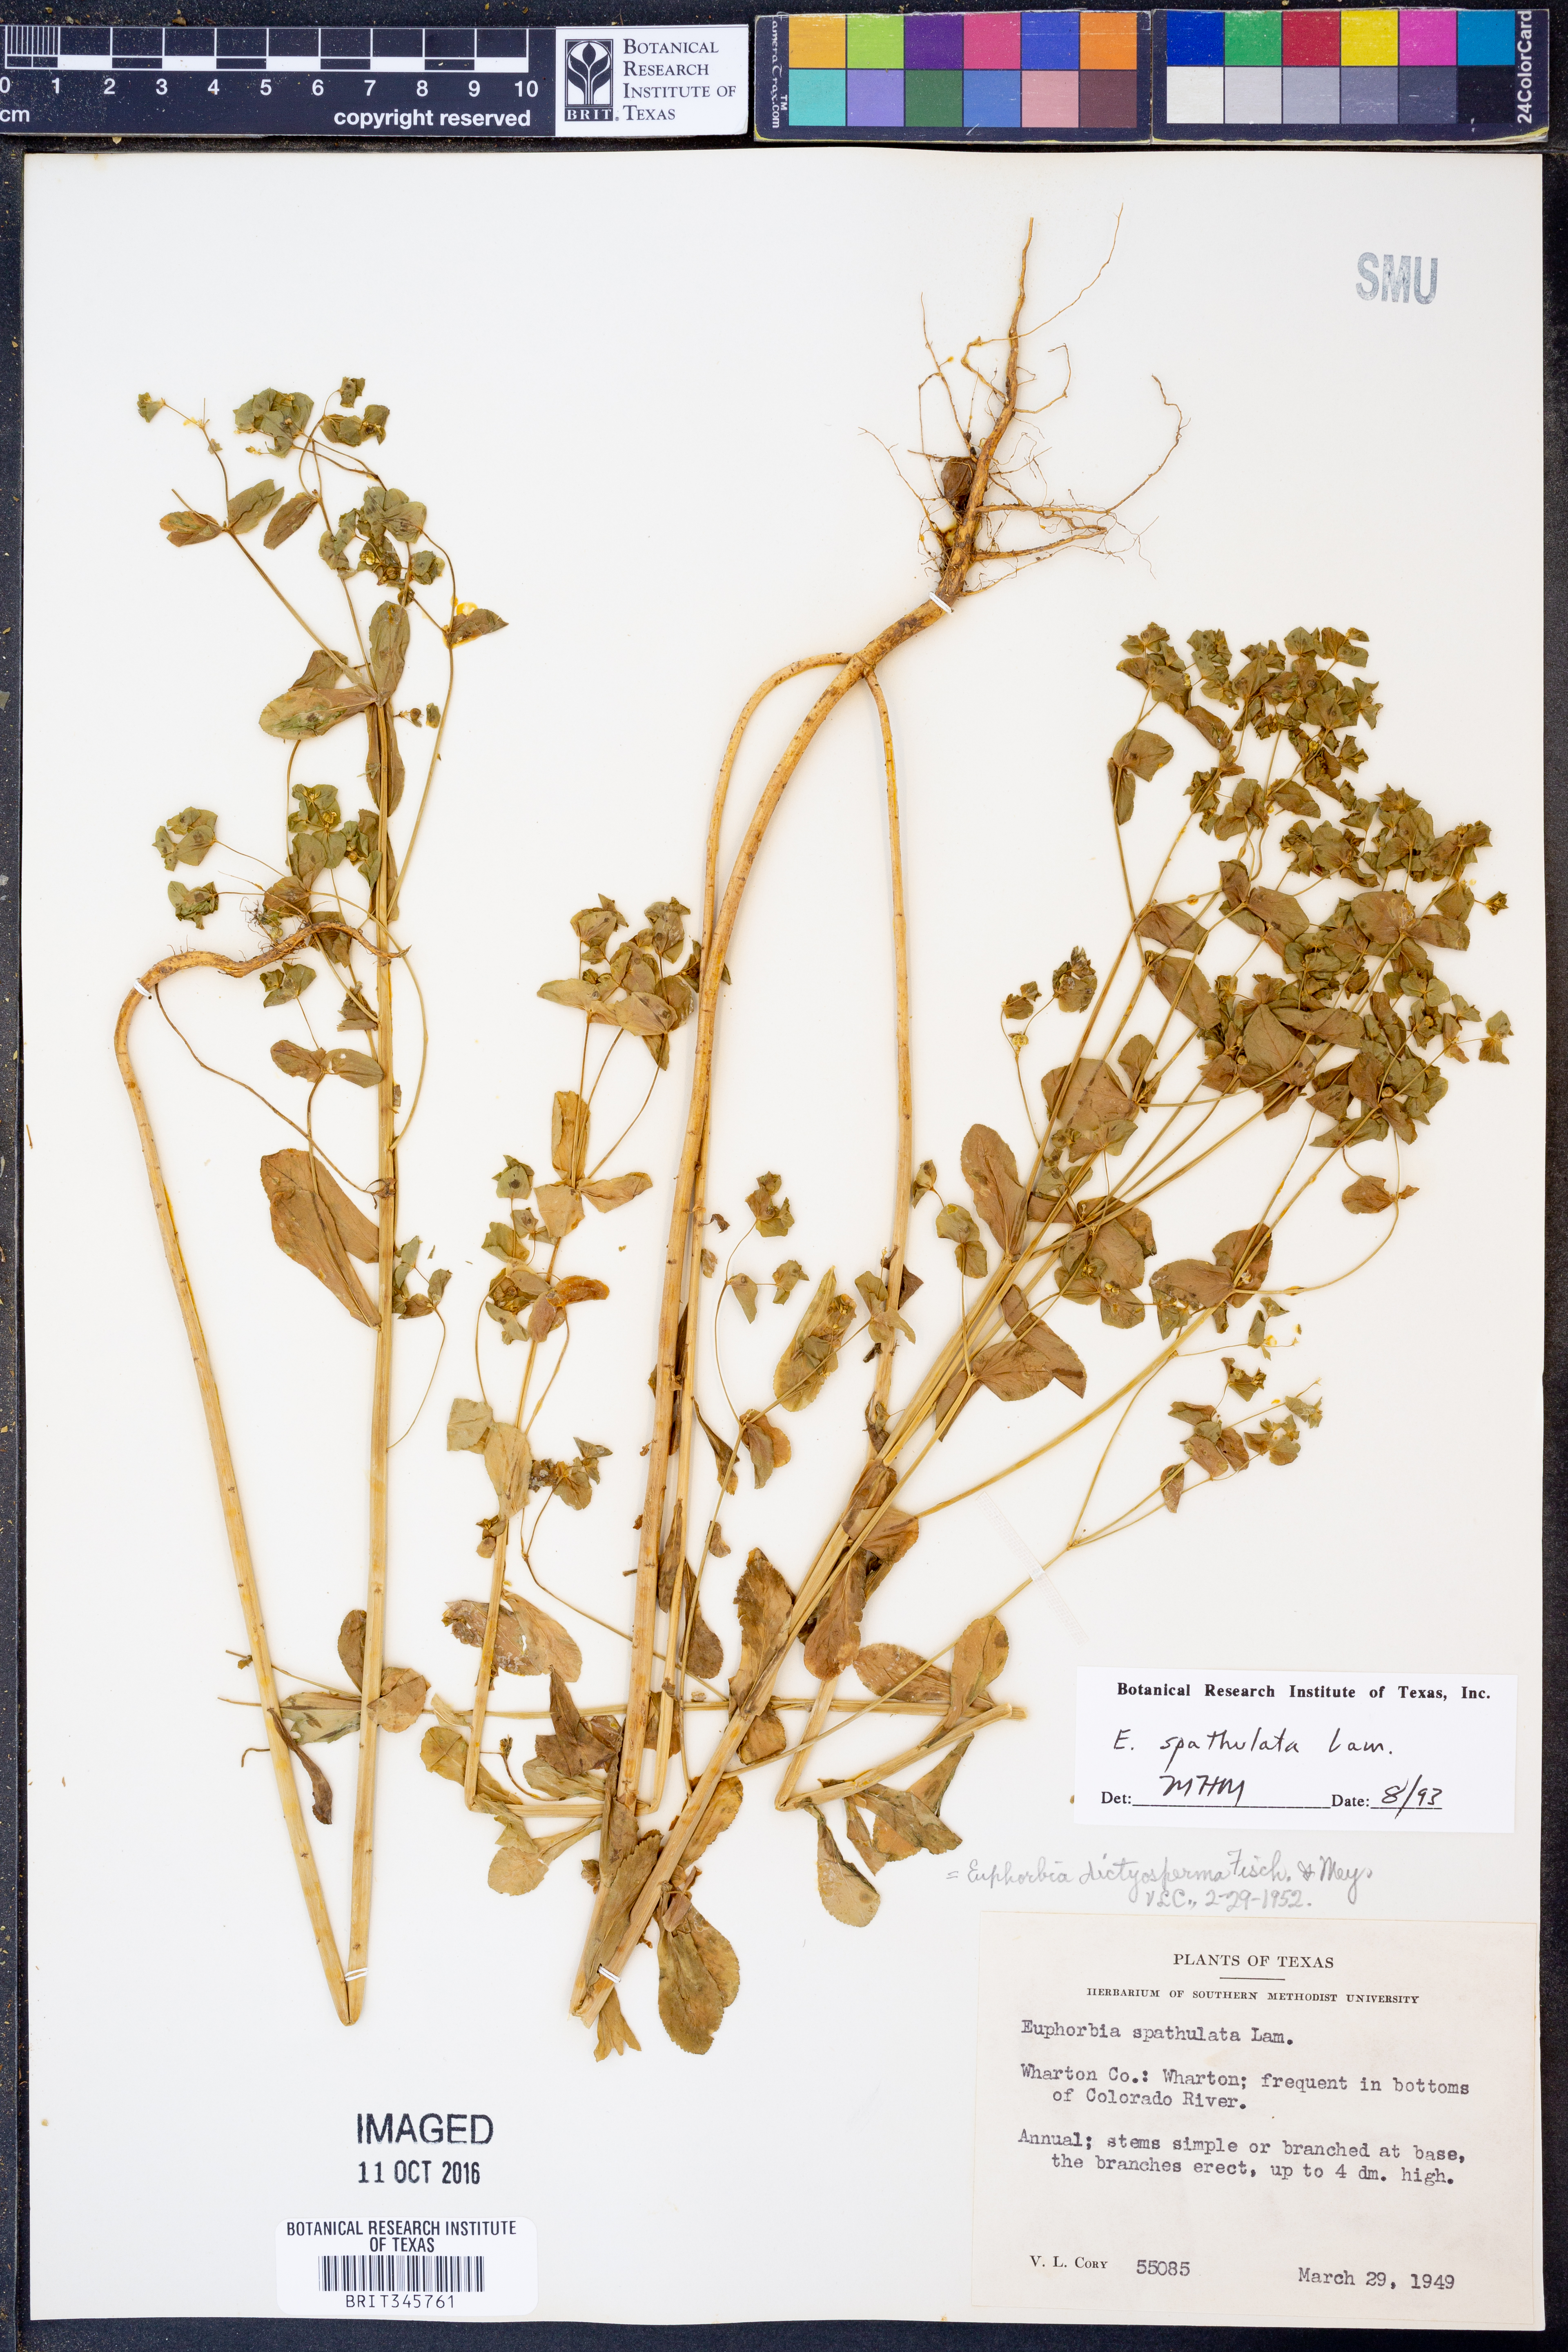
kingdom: Plantae
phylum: Tracheophyta
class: Magnoliopsida
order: Malpighiales
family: Euphorbiaceae
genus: Euphorbia
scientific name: Euphorbia spathulata
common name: Blunt spurge
